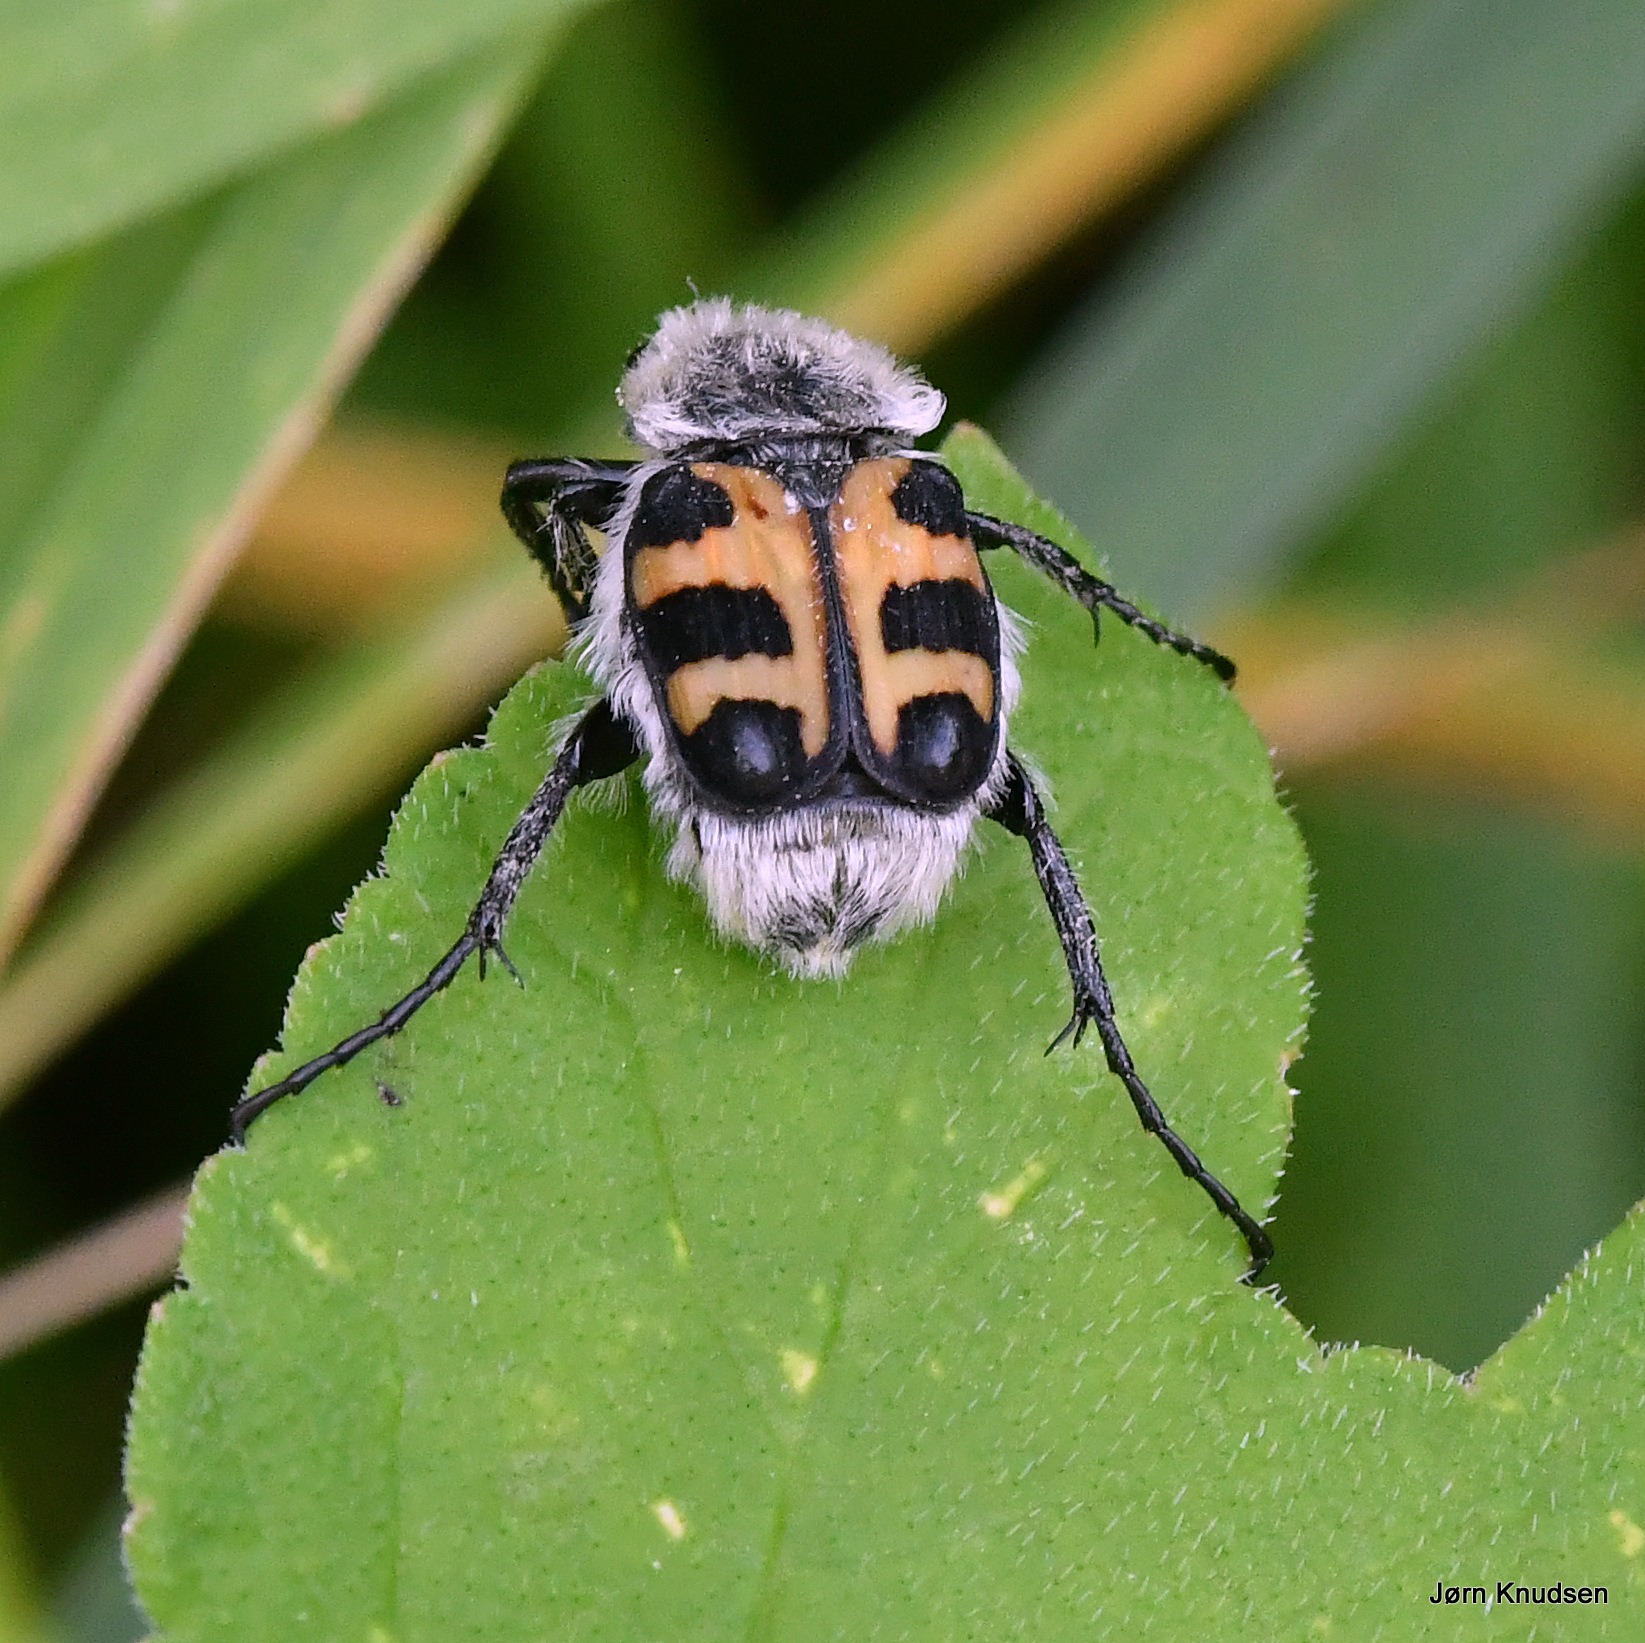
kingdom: Animalia
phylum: Arthropoda
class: Insecta
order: Coleoptera
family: Scarabaeidae
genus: Trichius
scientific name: Trichius gallicus
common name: Lille humlebille
